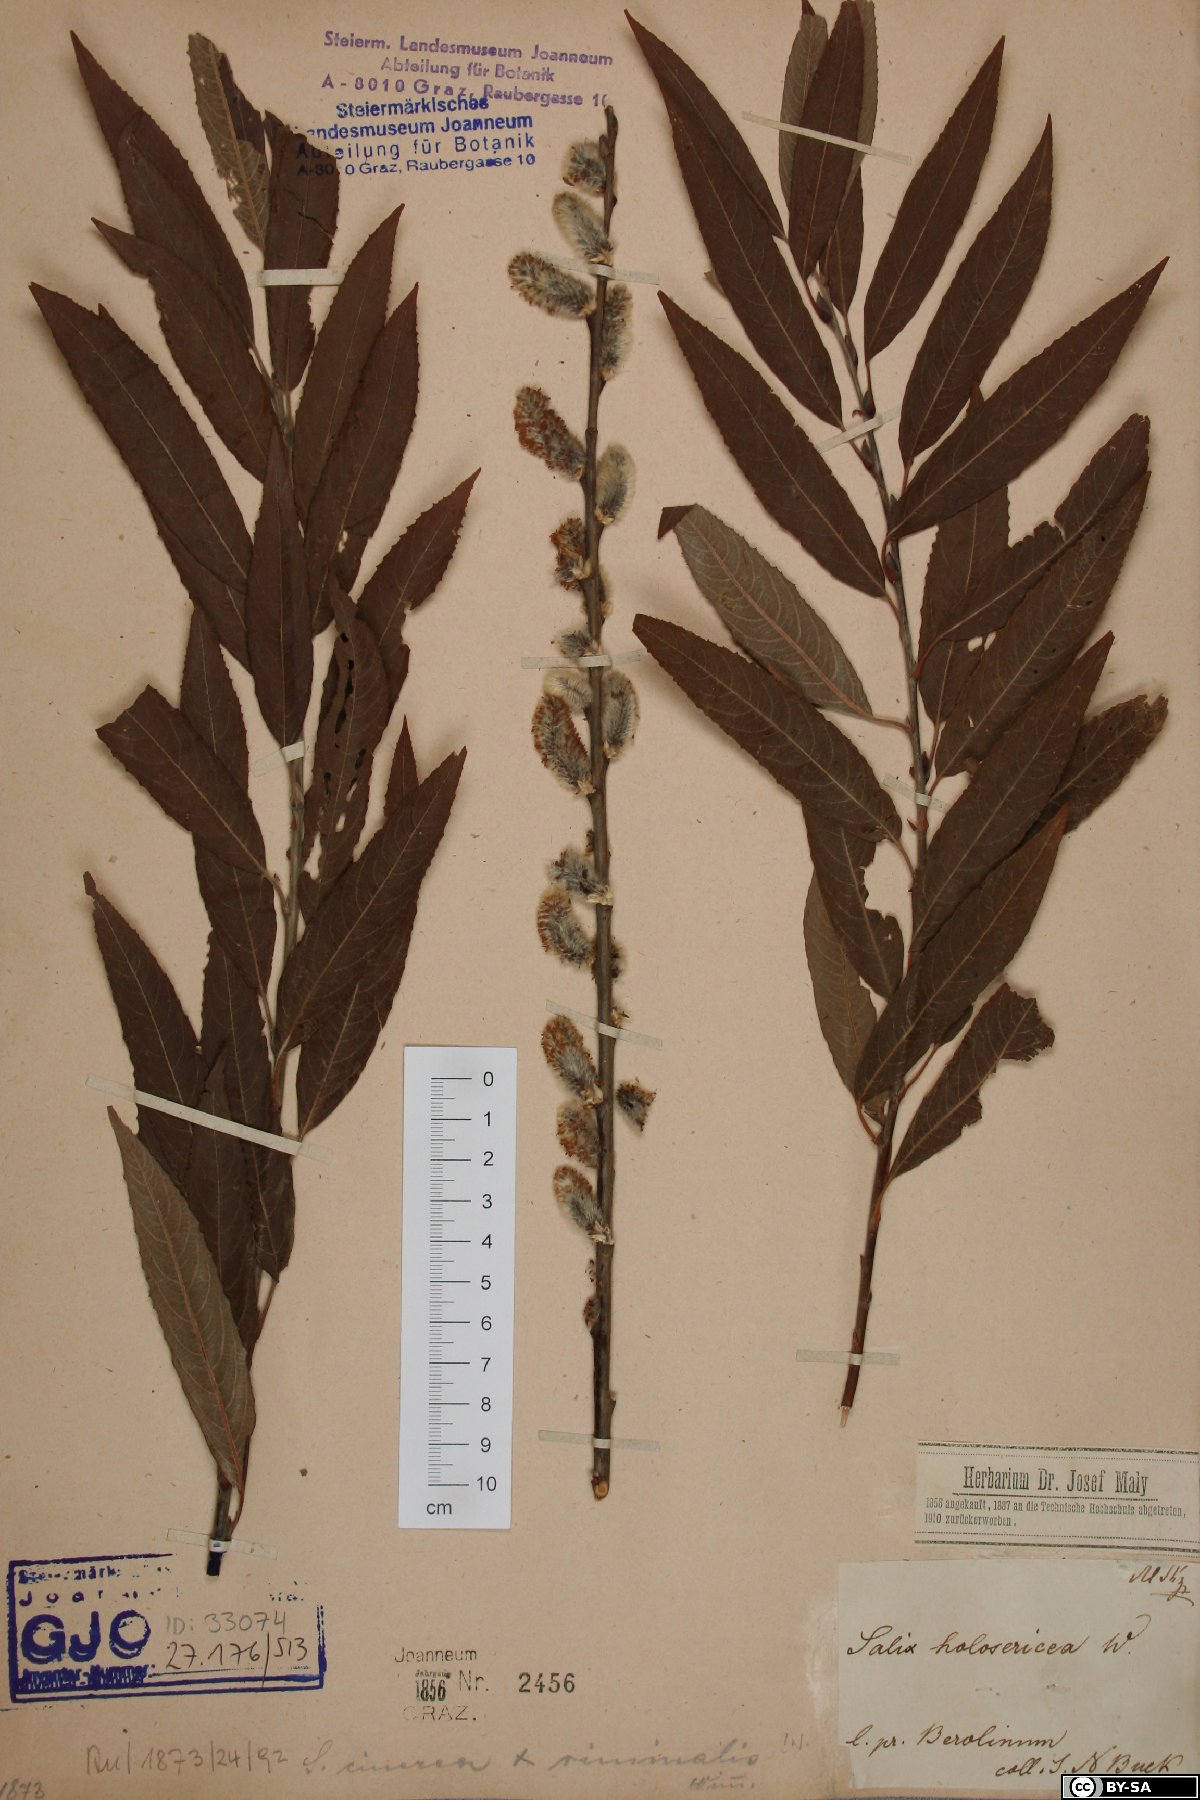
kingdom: Plantae
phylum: Tracheophyta
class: Magnoliopsida
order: Malpighiales
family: Salicaceae
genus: Salix
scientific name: Salix holosericea
